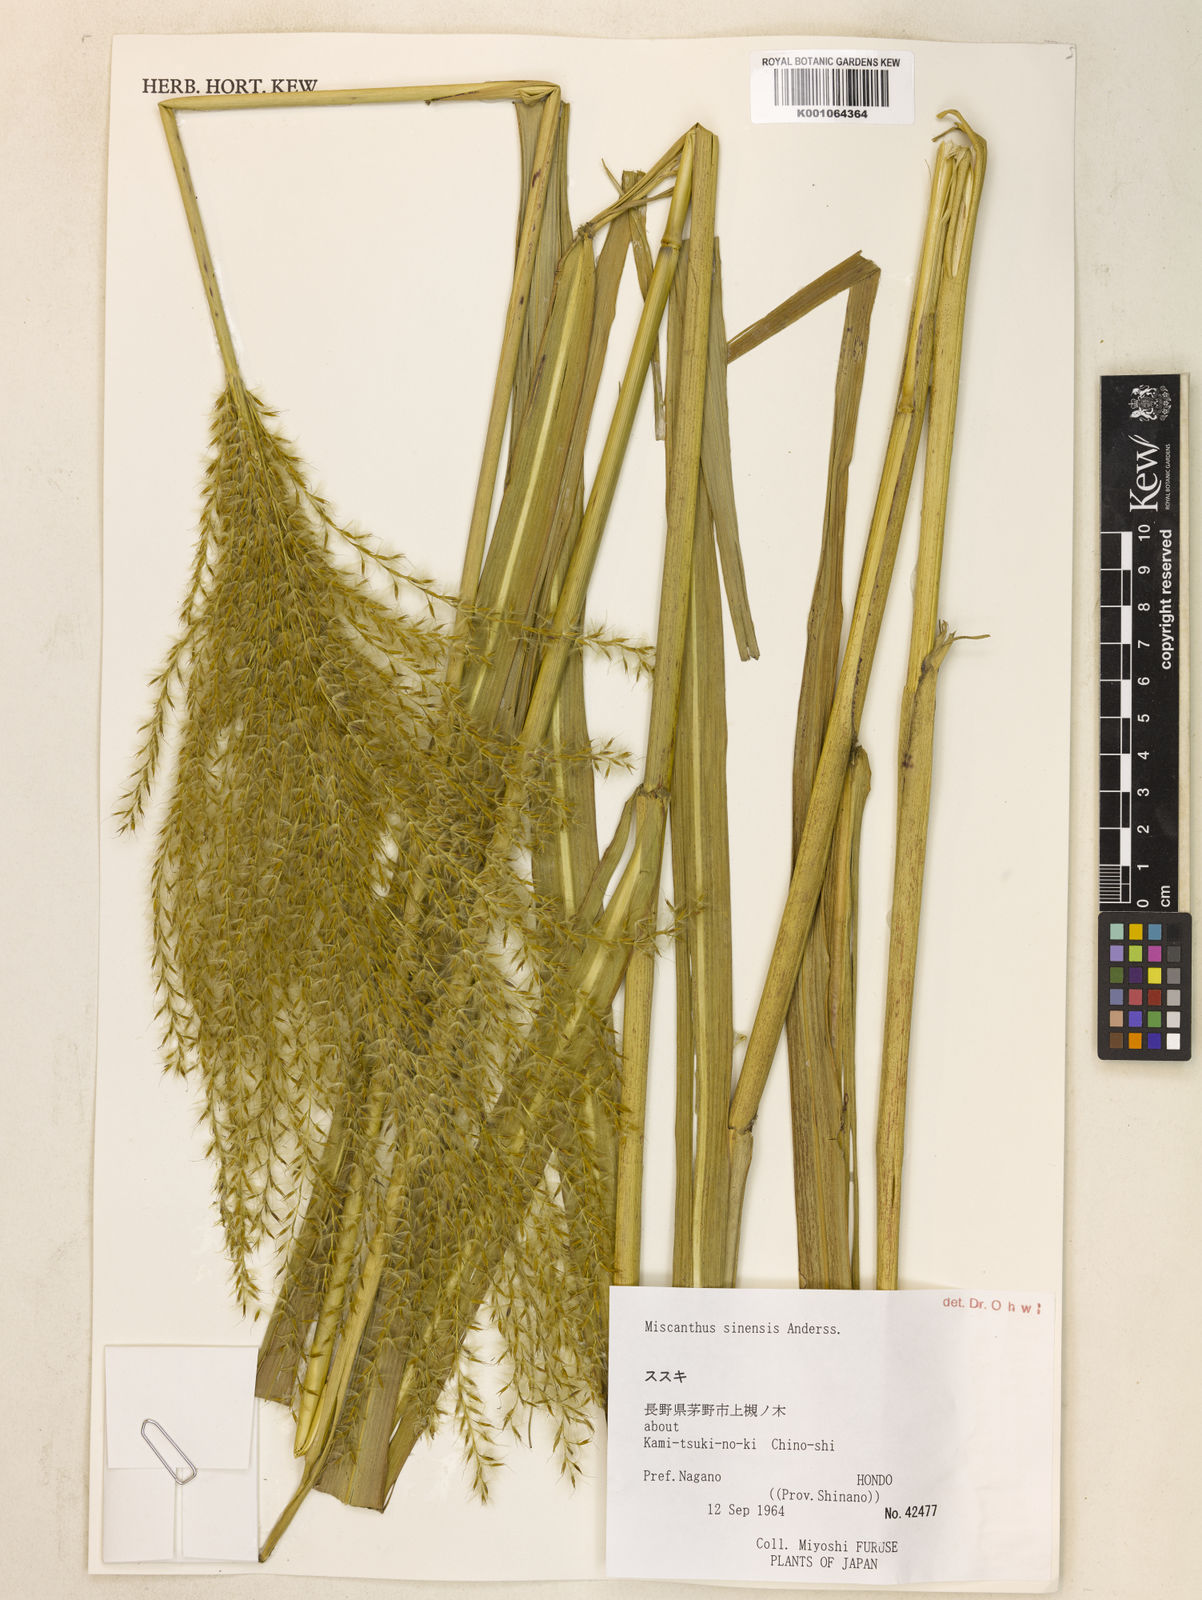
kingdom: Plantae
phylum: Tracheophyta
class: Liliopsida
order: Poales
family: Poaceae
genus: Miscanthus
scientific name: Miscanthus sinensis
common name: Chinese silvergrass
